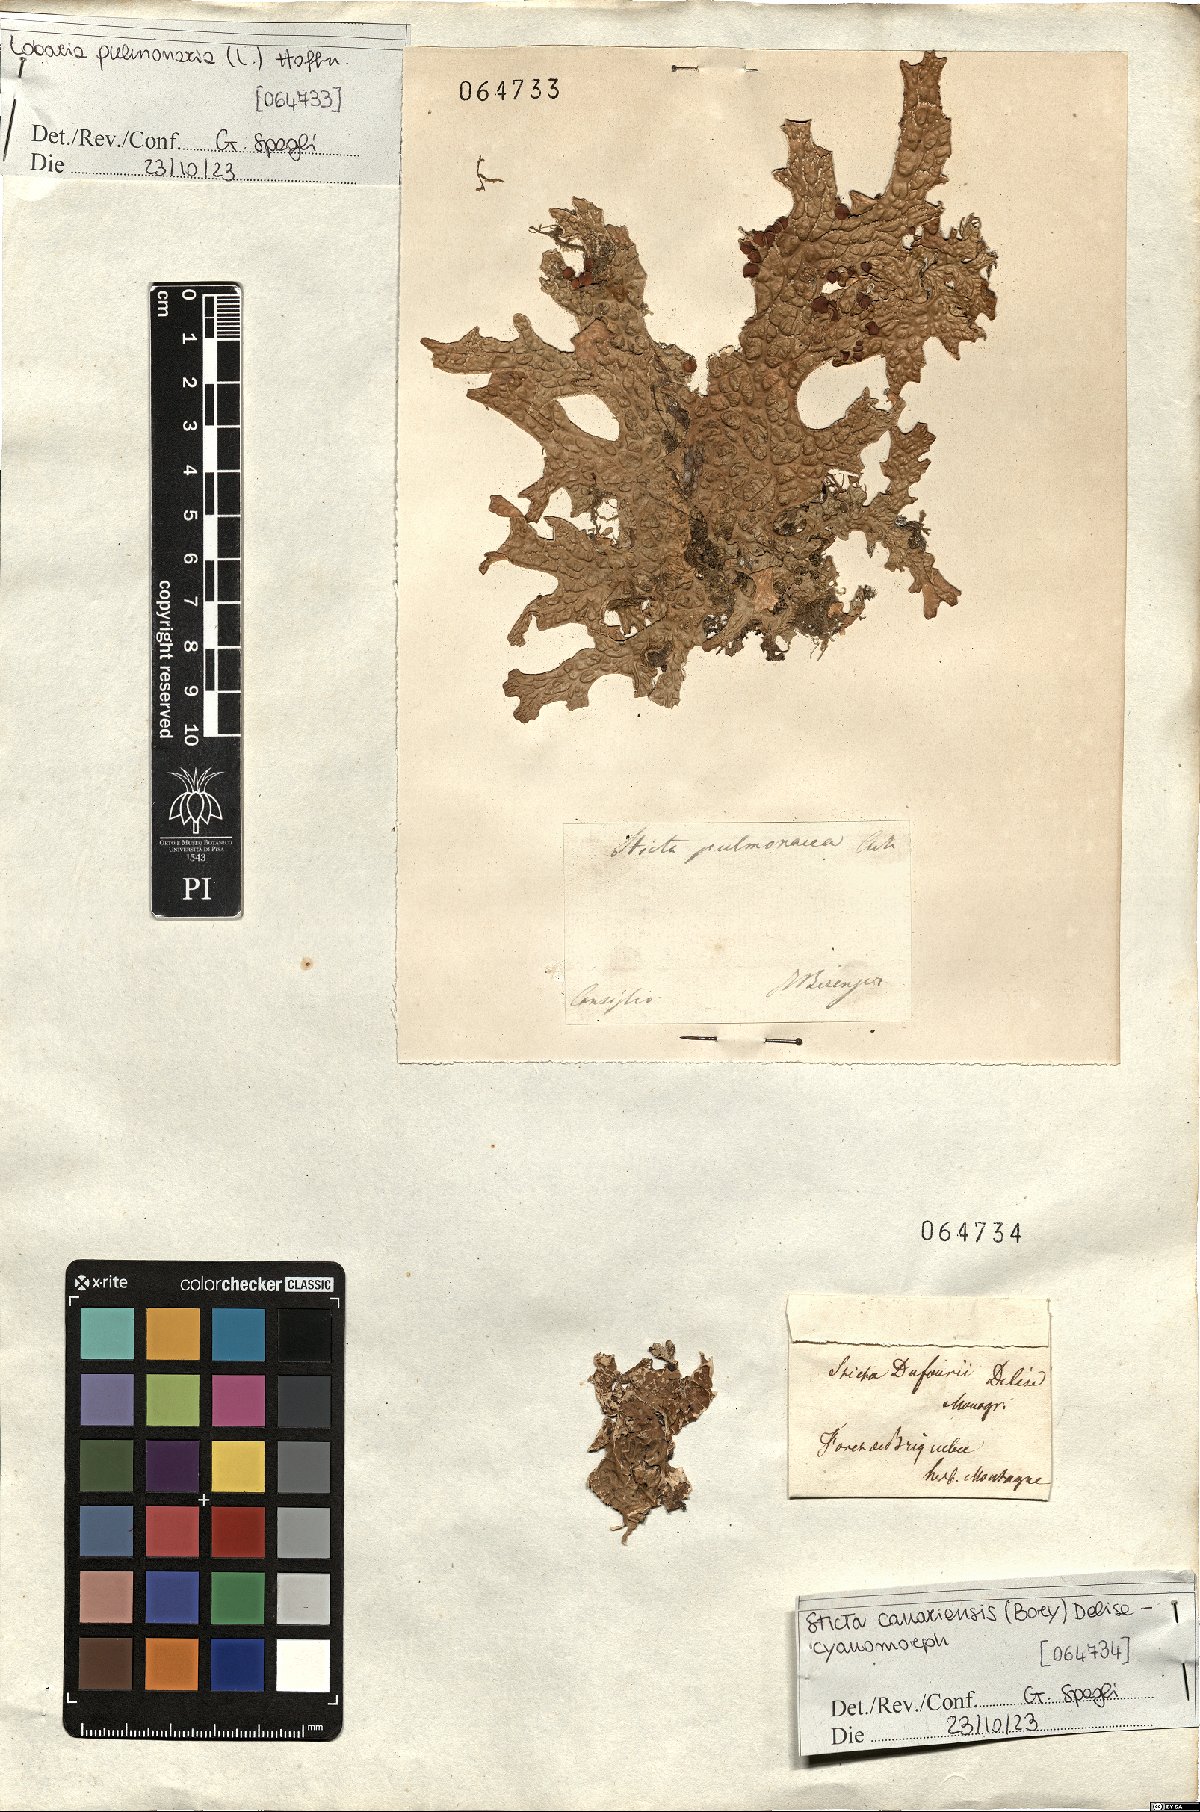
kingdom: Fungi
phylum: Ascomycota
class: Lecanoromycetes
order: Peltigerales
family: Lobariaceae
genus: Sticta
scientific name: Sticta canariensis
